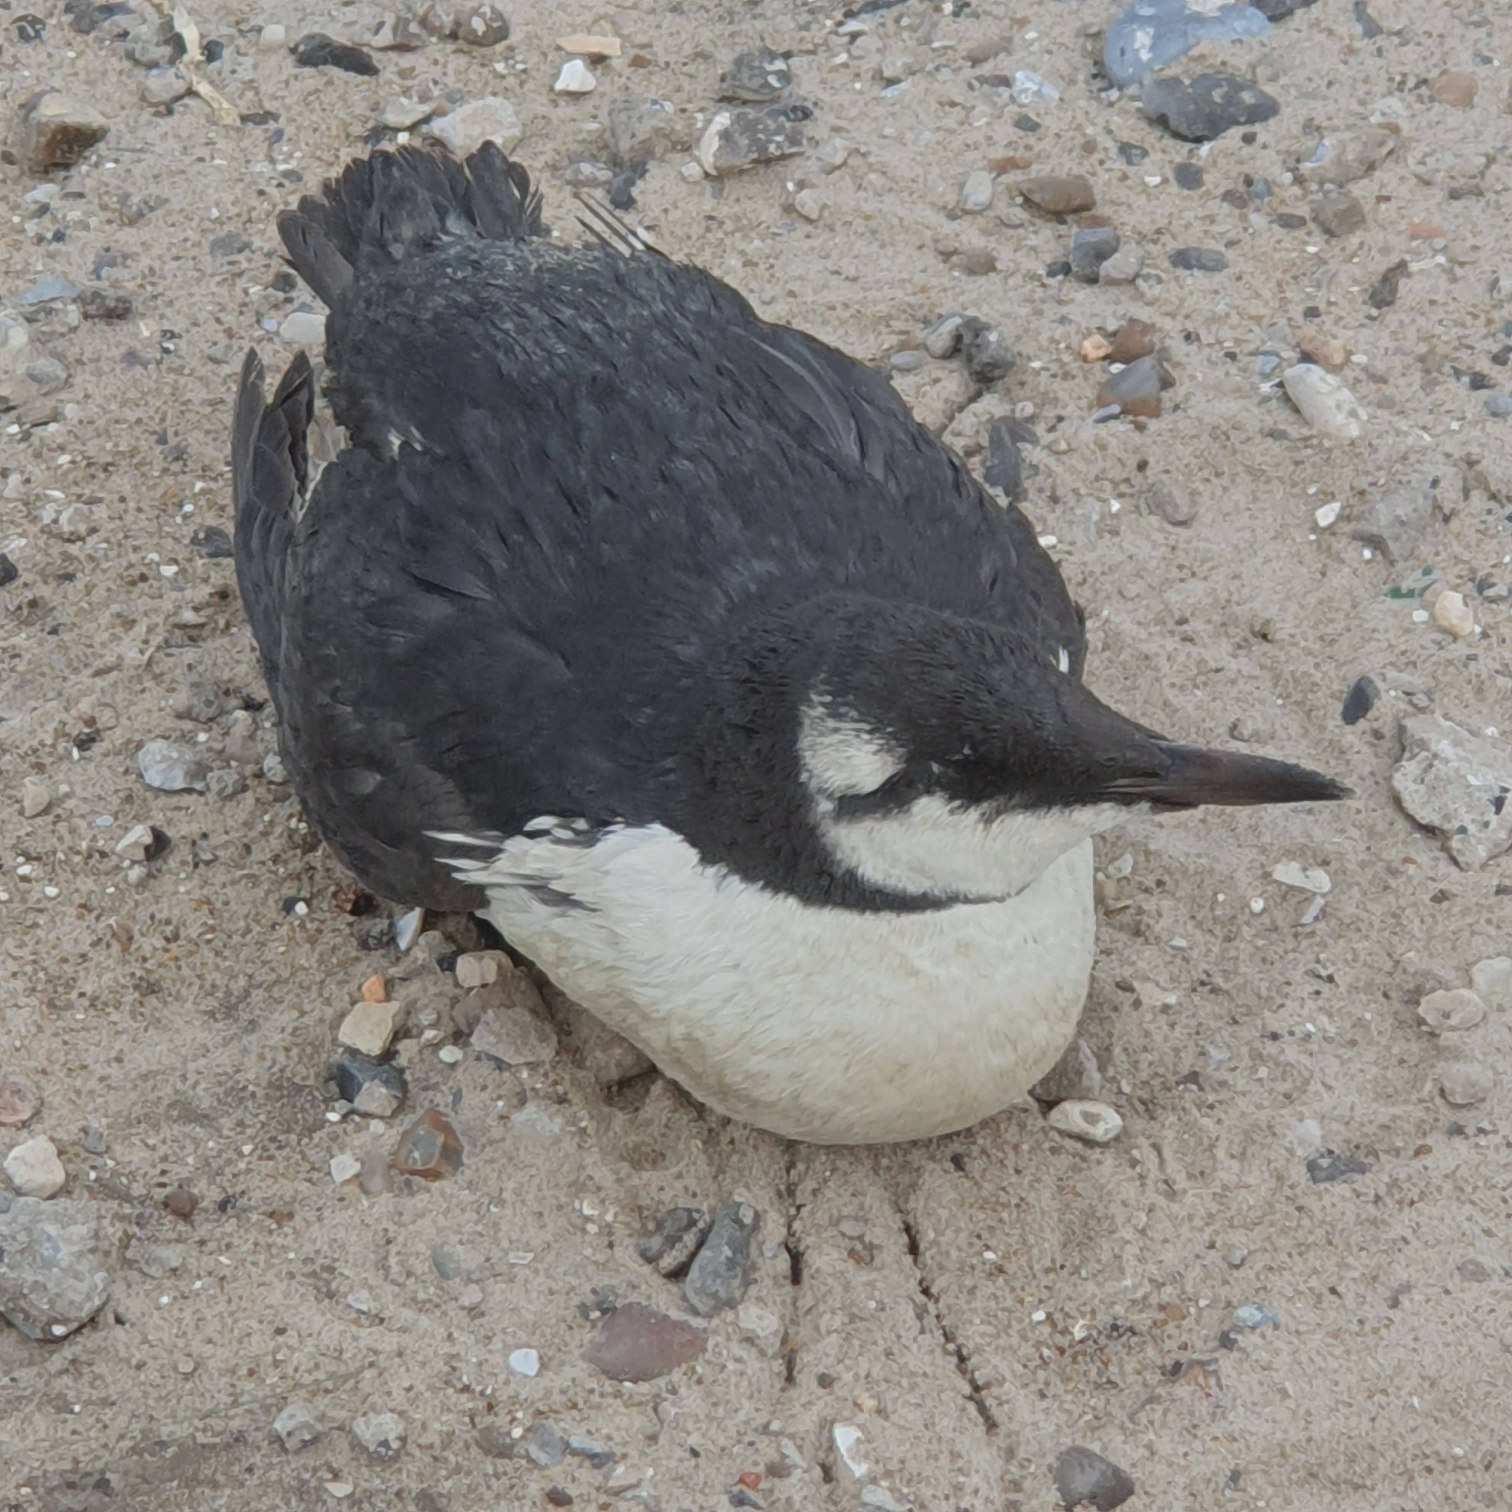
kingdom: Animalia
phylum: Chordata
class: Aves
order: Charadriiformes
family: Alcidae
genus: Uria
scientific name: Uria aalge
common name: Lomvie
